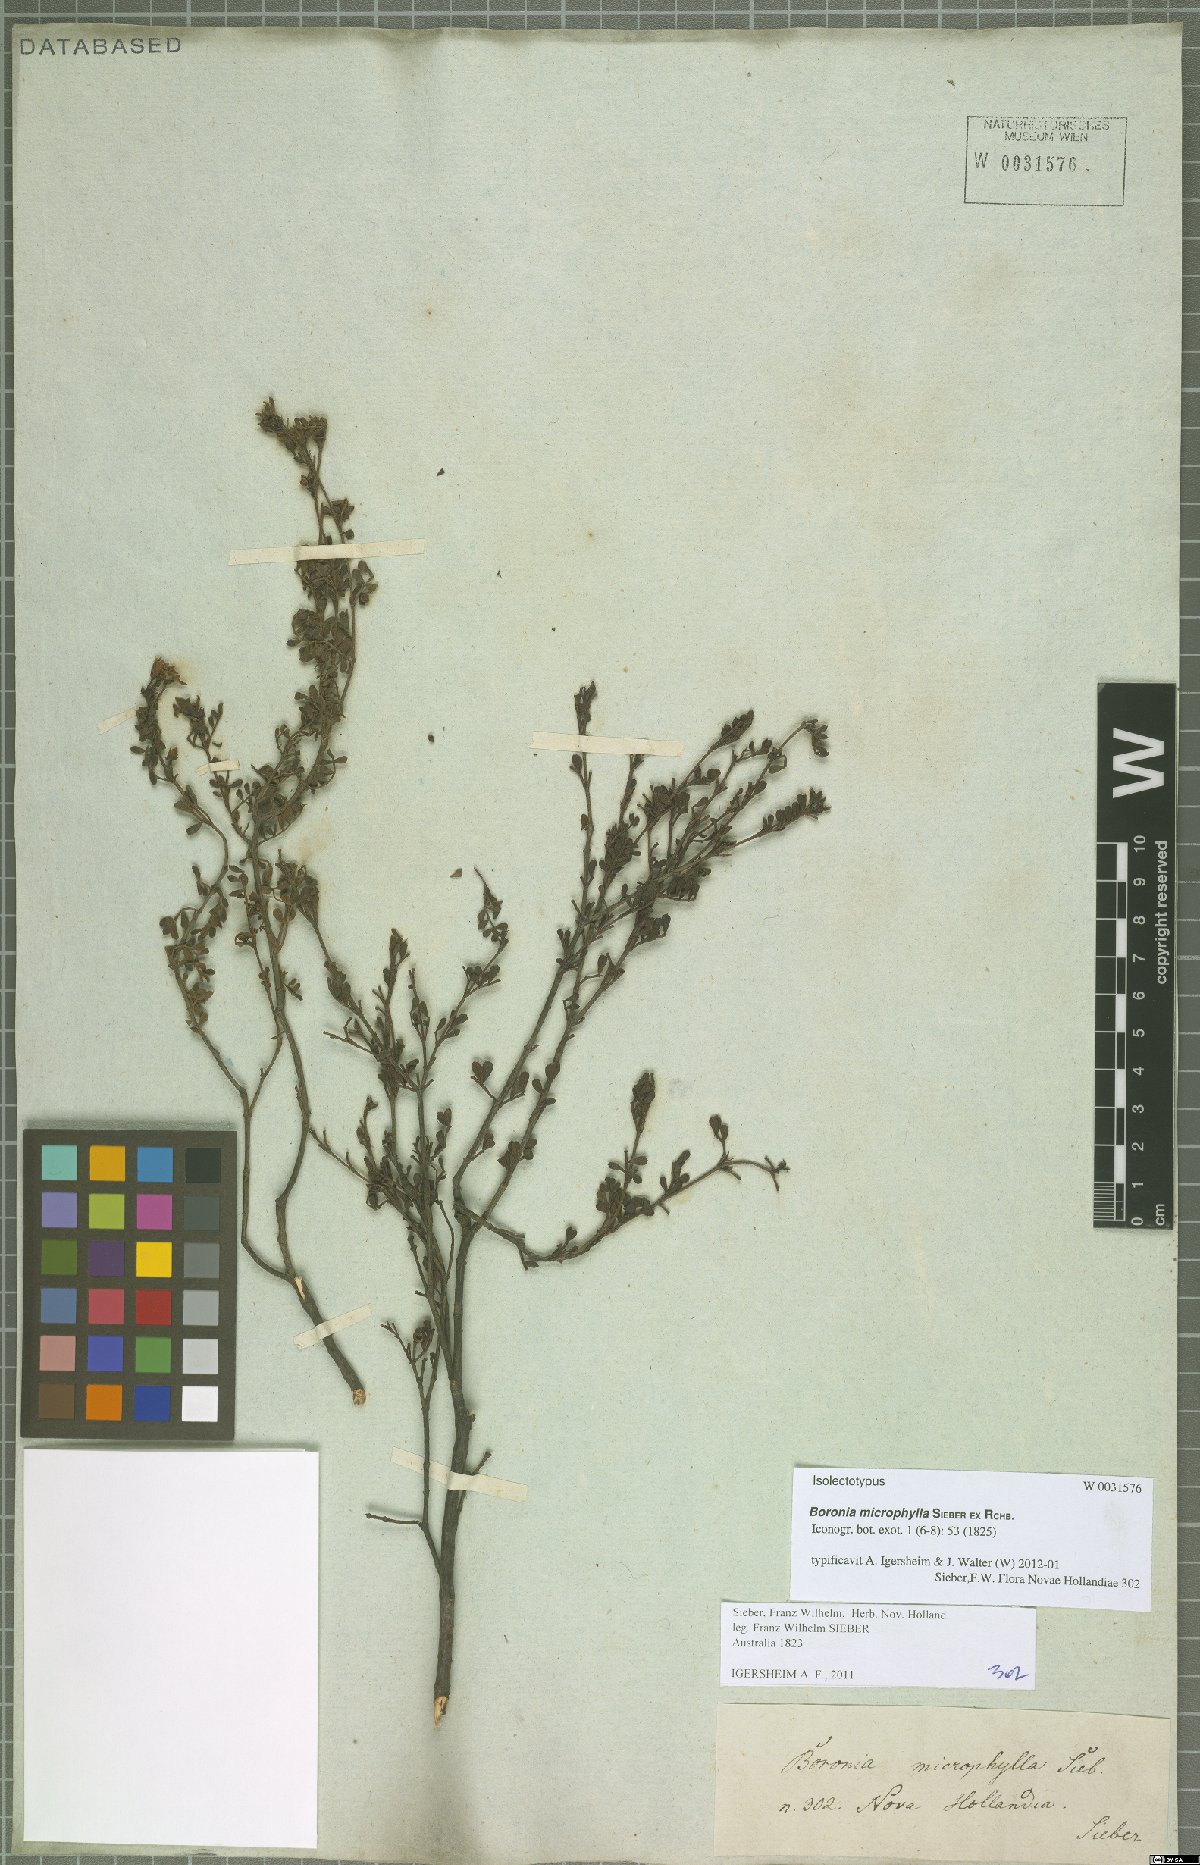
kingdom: Plantae
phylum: Tracheophyta
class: Magnoliopsida
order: Sapindales
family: Rutaceae
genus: Boronia
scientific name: Boronia microphylla
